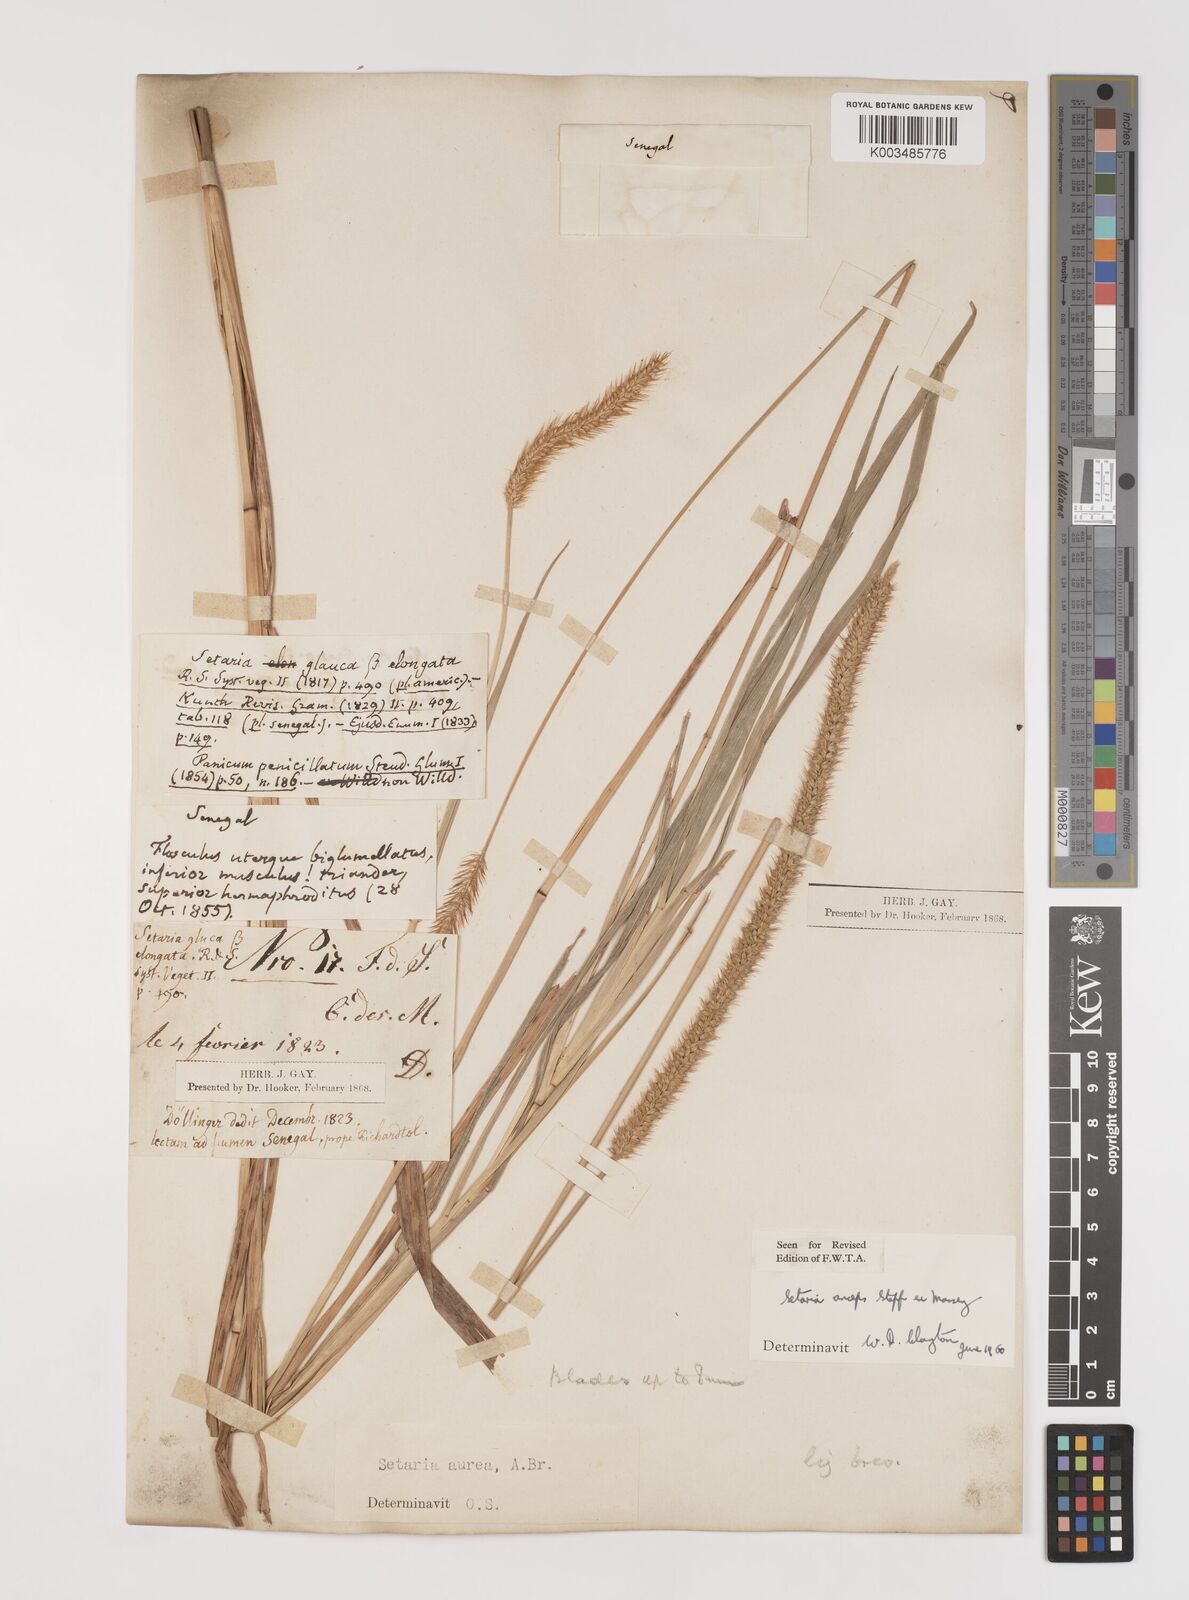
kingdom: Plantae
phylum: Tracheophyta
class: Liliopsida
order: Poales
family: Poaceae
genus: Setaria
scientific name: Setaria sphacelata
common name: African bristlegrass
